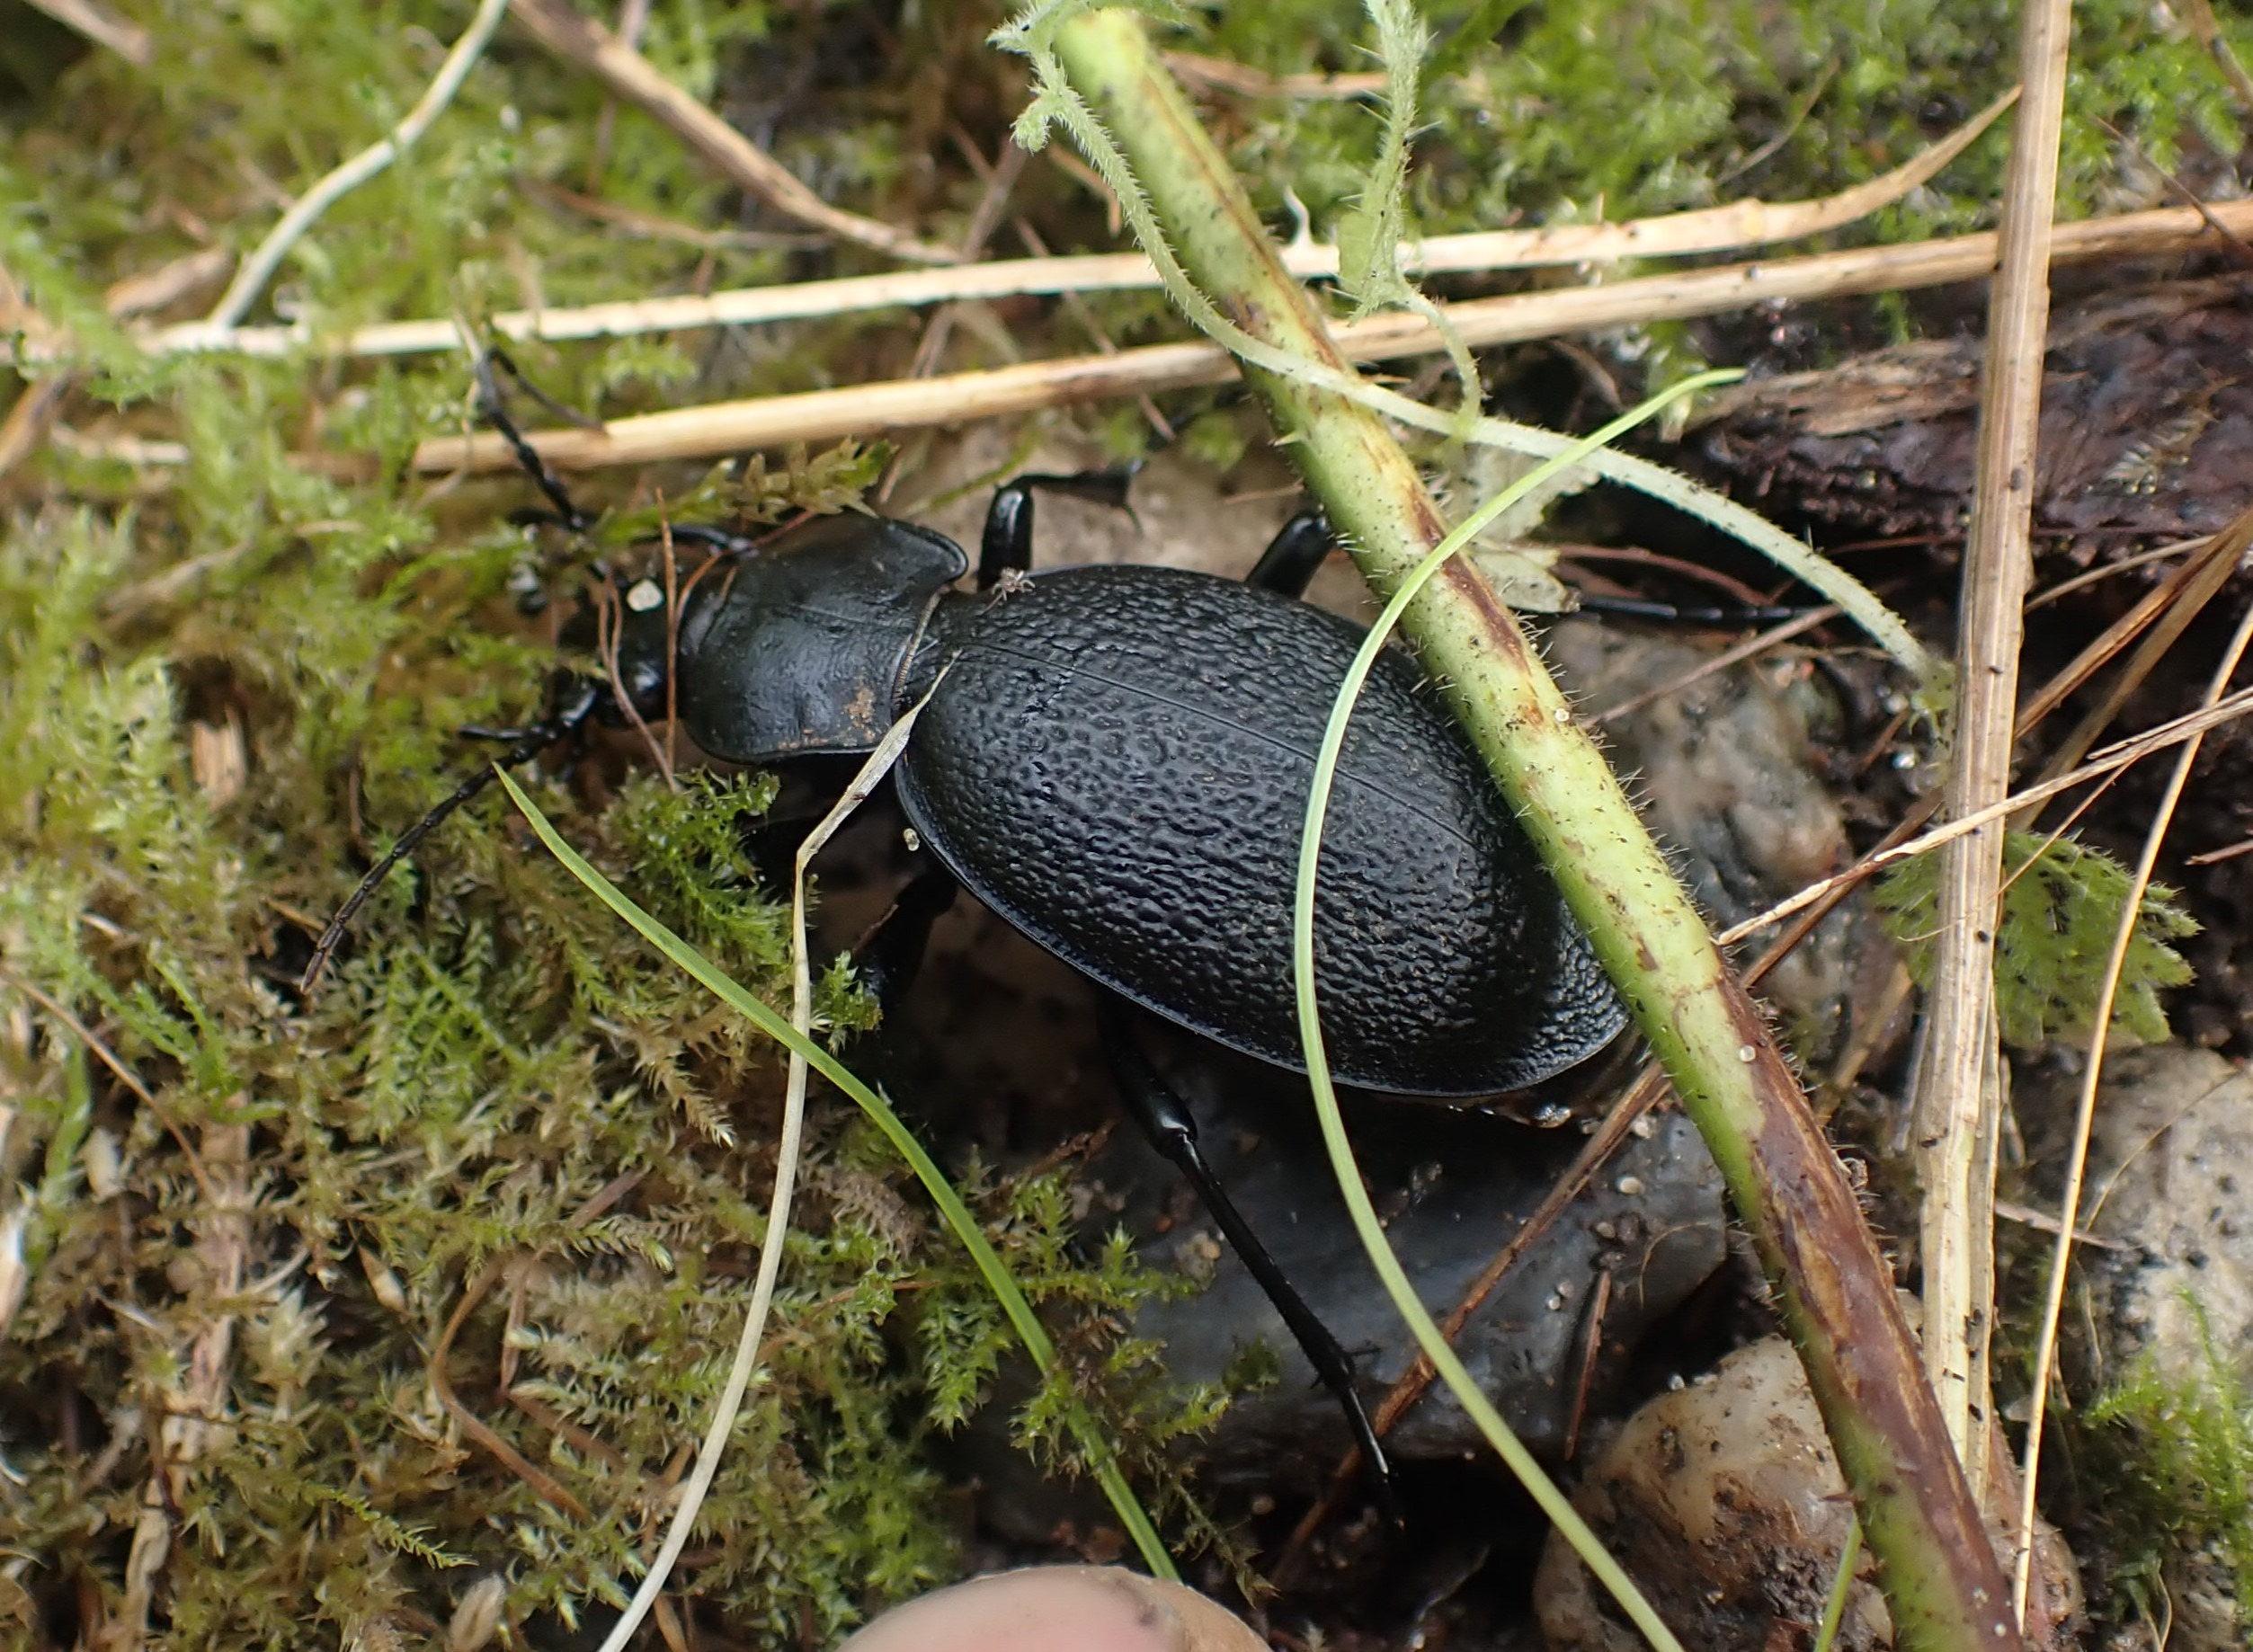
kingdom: Animalia
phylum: Arthropoda
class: Insecta
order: Coleoptera
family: Carabidae
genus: Carabus
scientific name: Carabus coriaceus
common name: Læderløber
